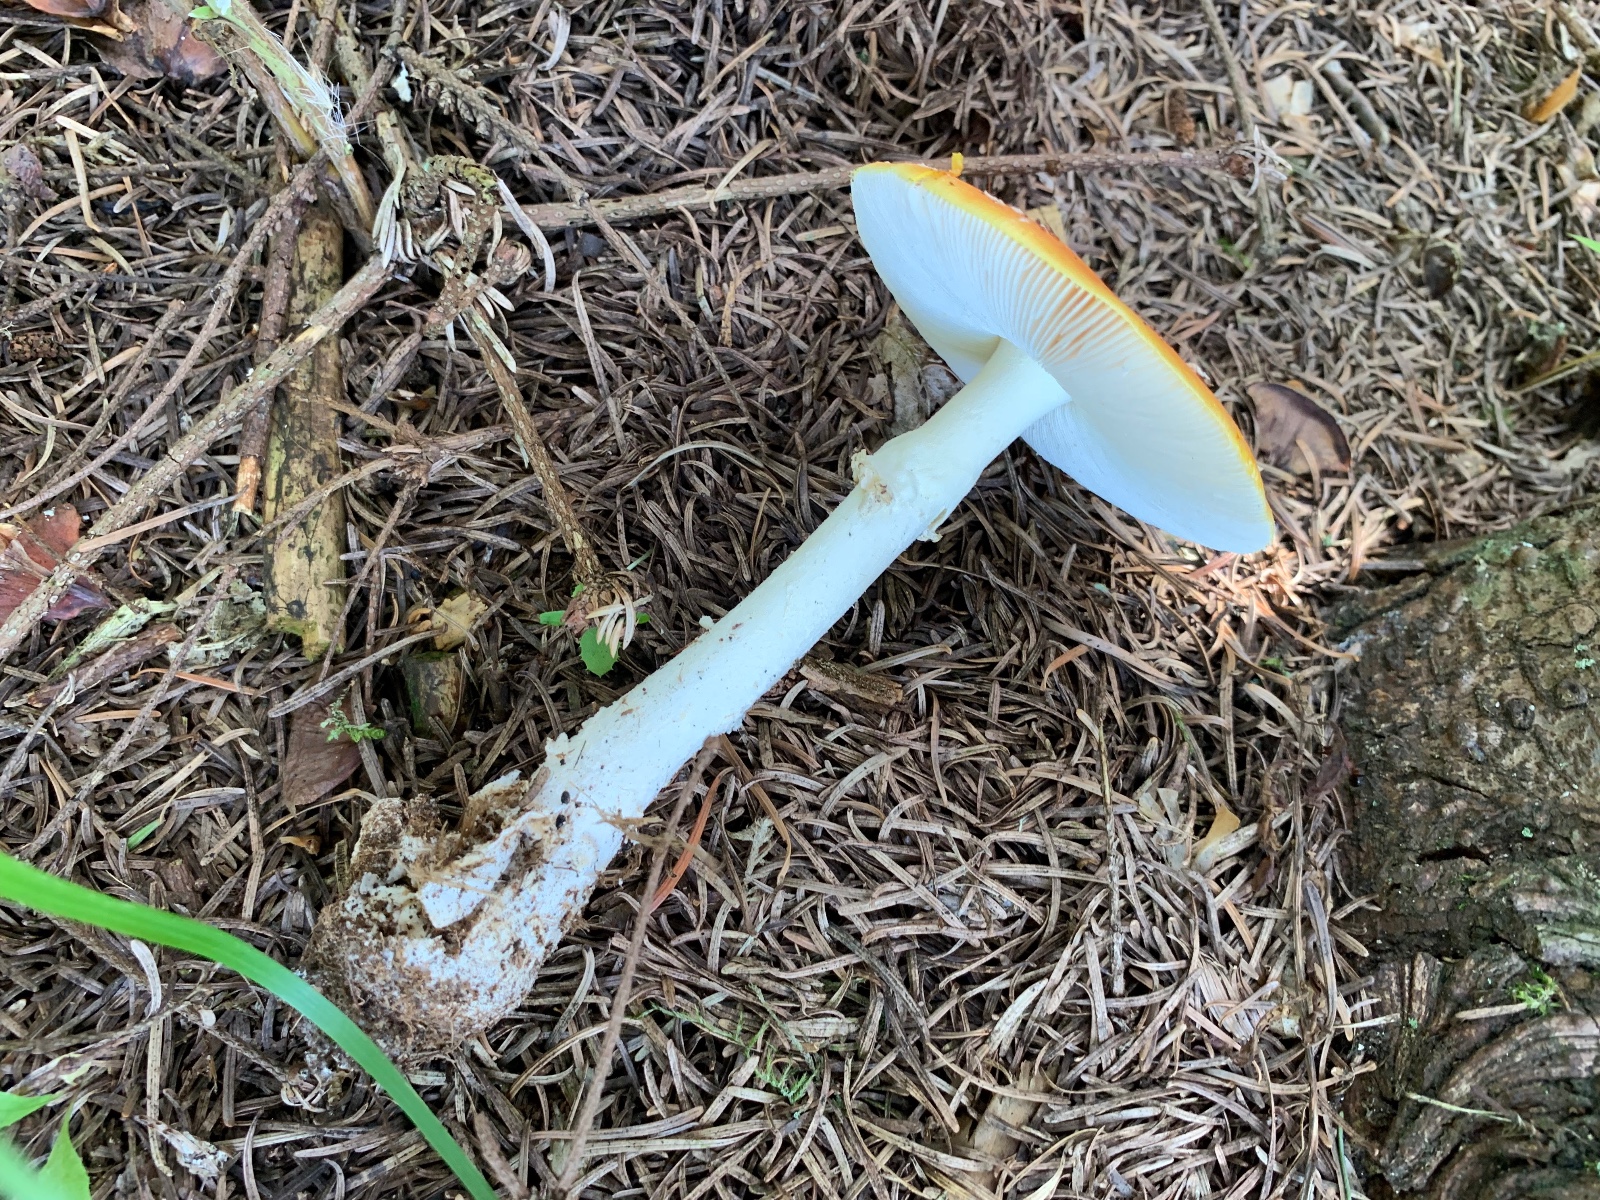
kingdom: Fungi
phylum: Basidiomycota
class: Agaricomycetes
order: Agaricales
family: Amanitaceae
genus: Amanita
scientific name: Amanita muscaria
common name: rød fluesvamp
